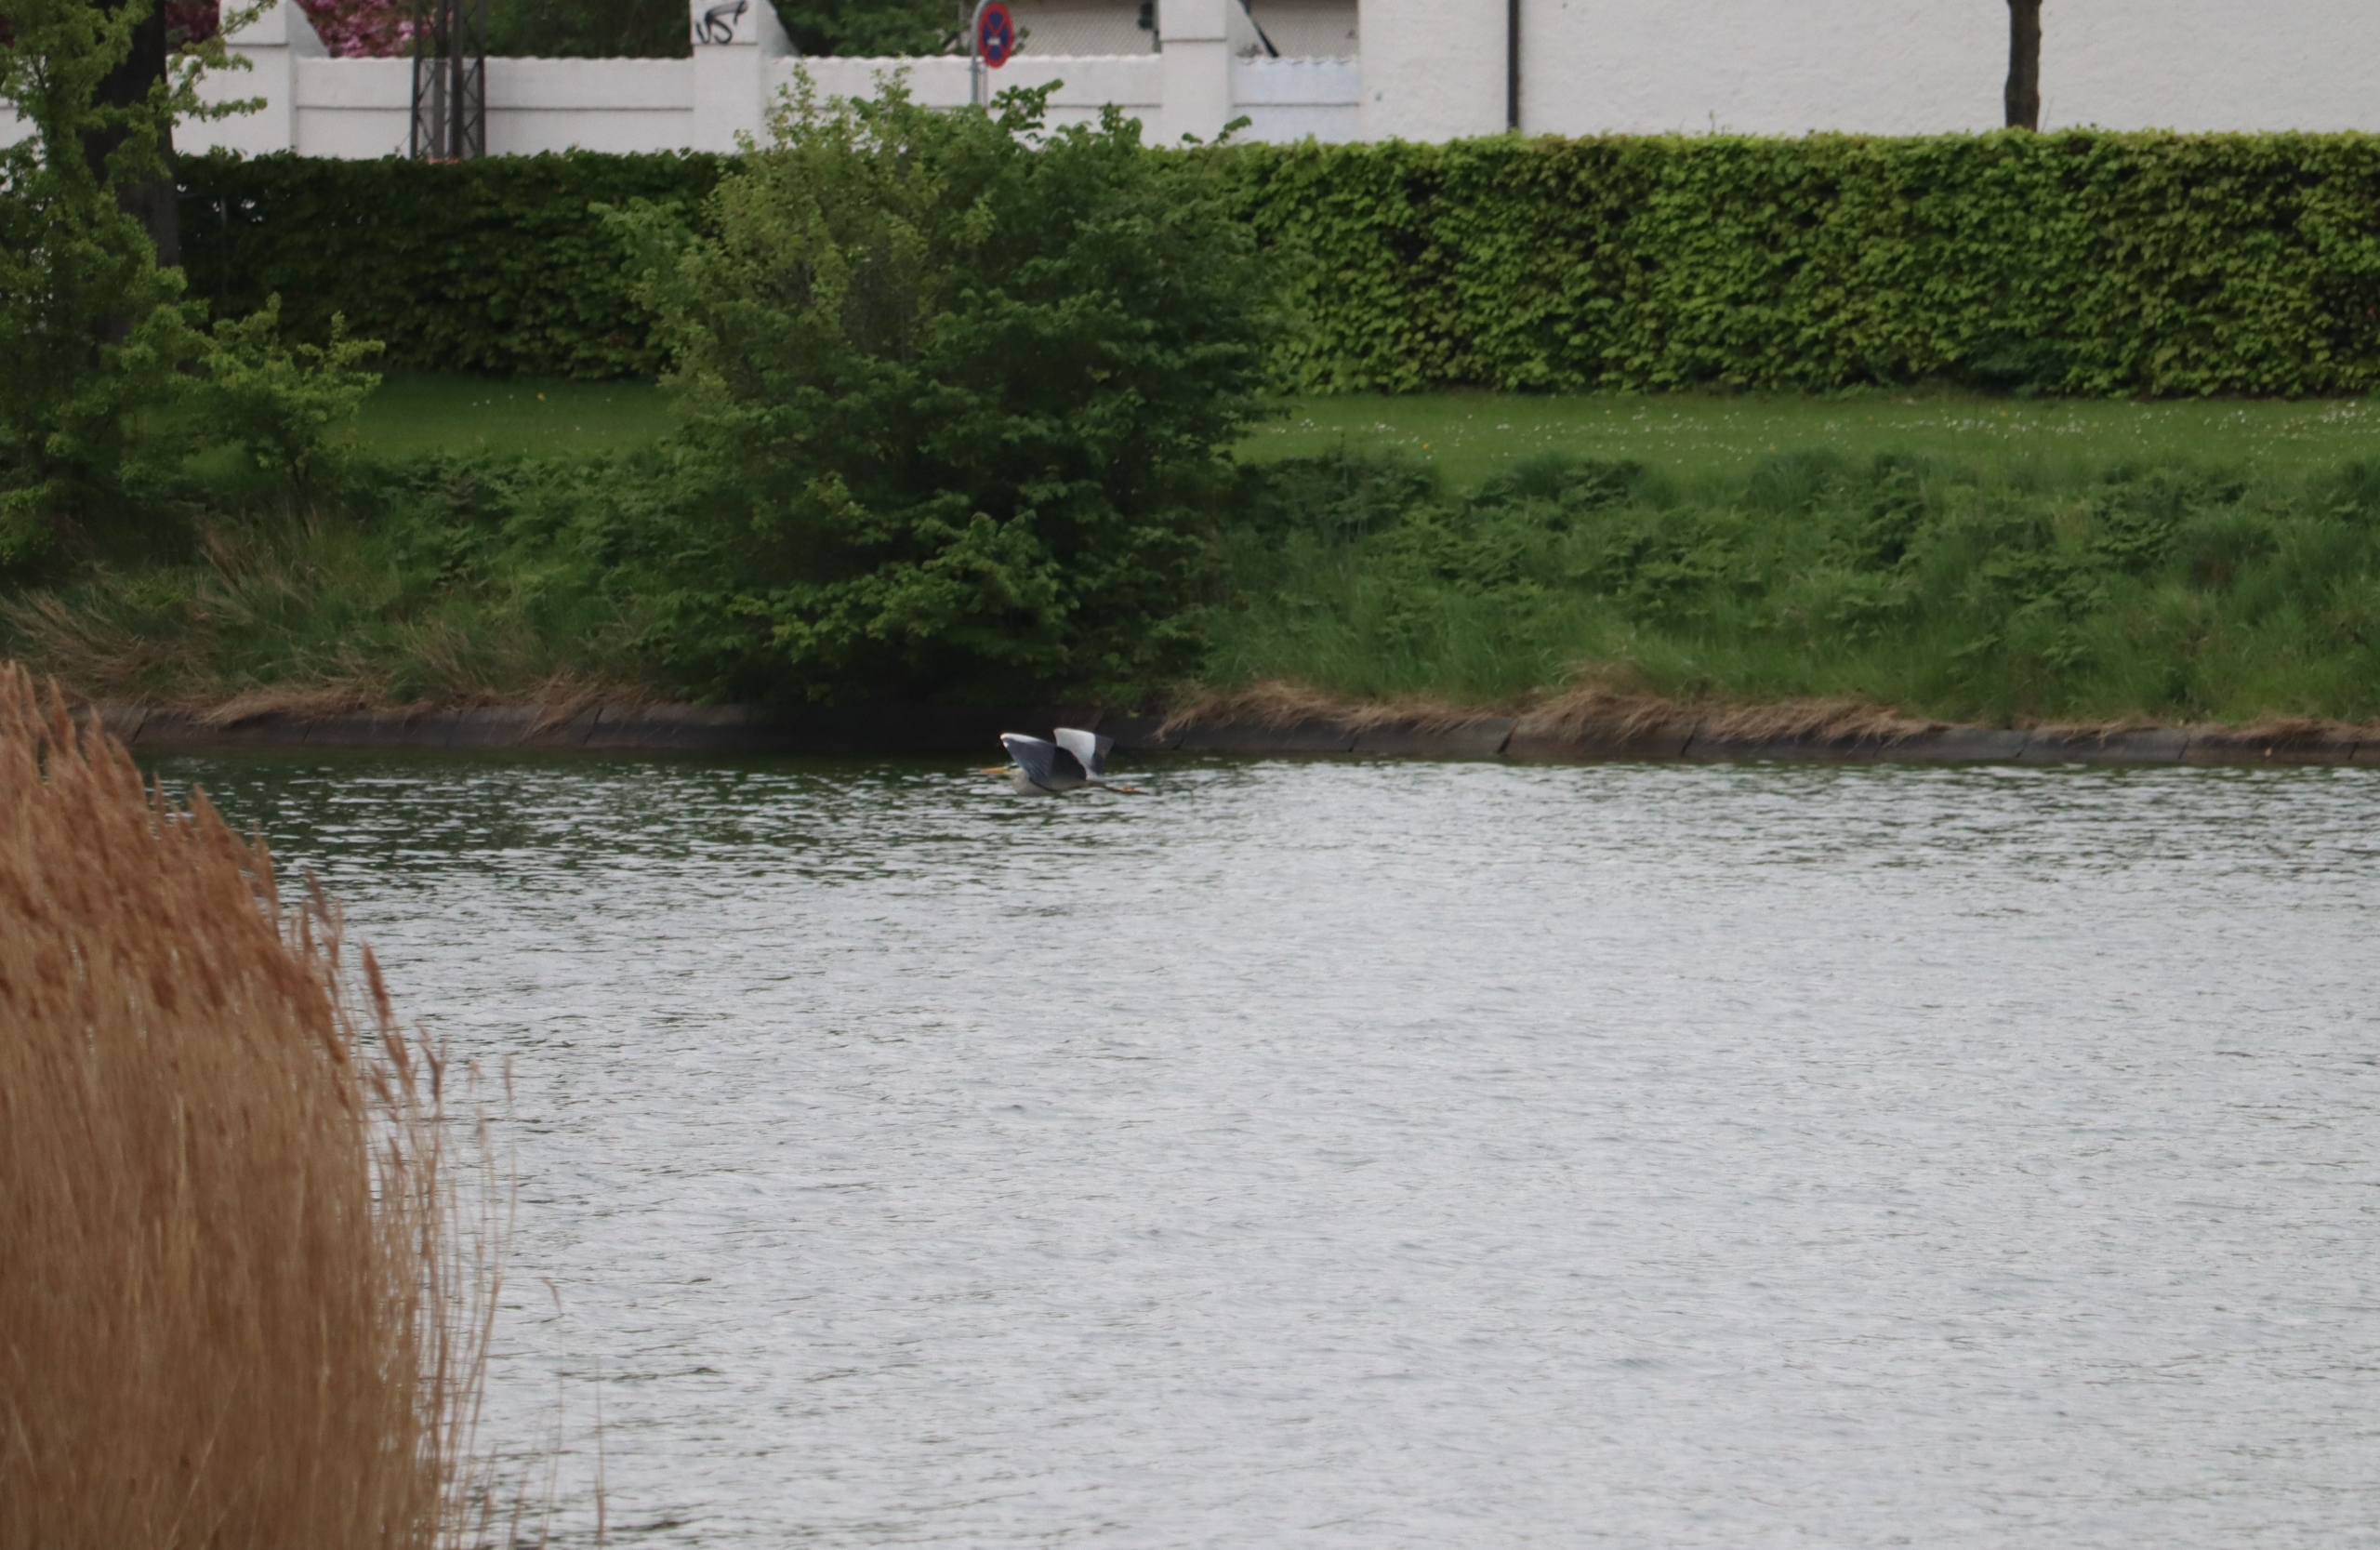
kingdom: Animalia
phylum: Chordata
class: Aves
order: Pelecaniformes
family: Ardeidae
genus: Ardea
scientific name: Ardea cinerea
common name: Fiskehejre
